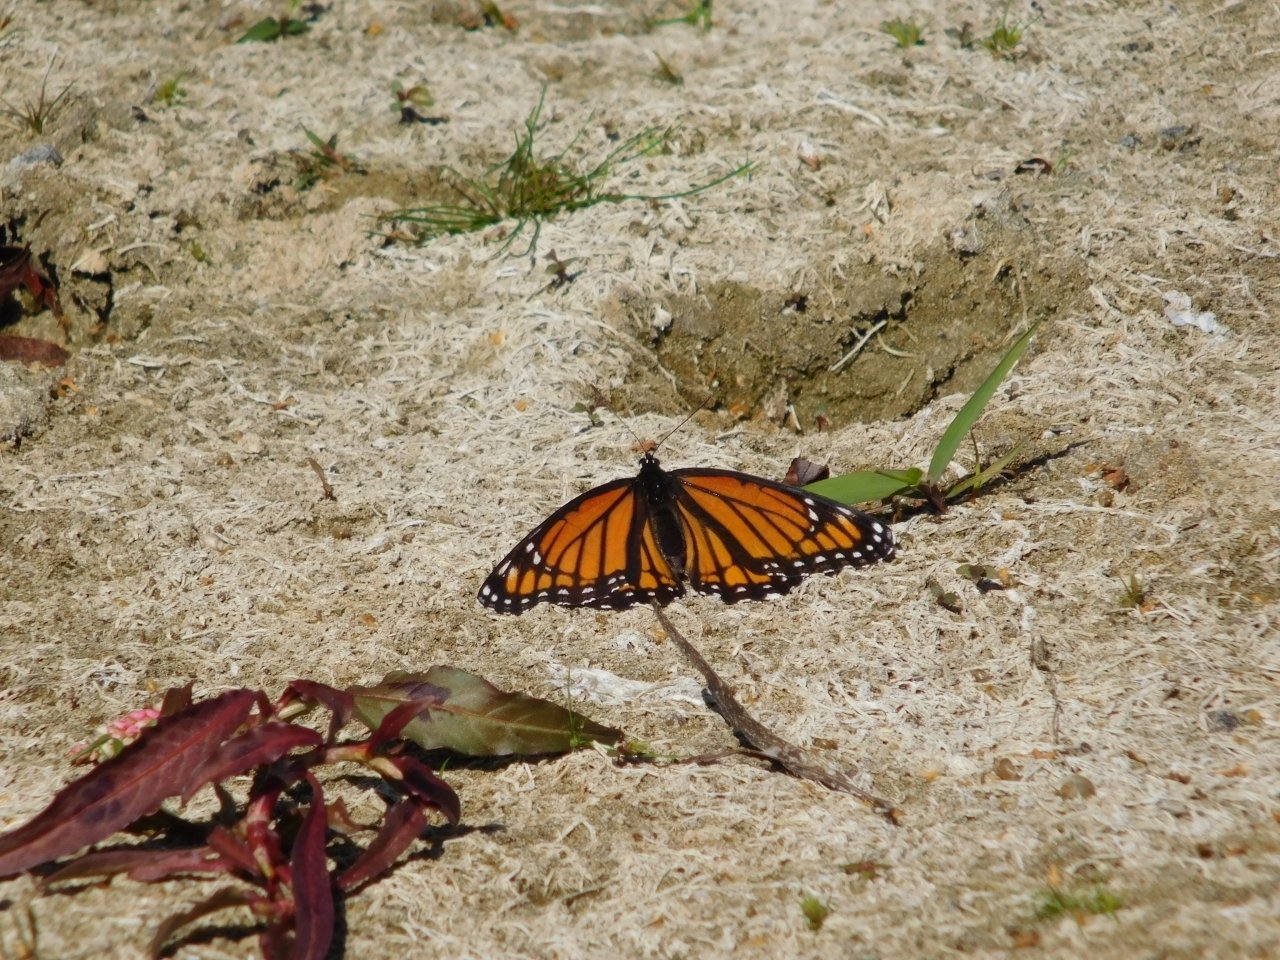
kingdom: Animalia
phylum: Arthropoda
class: Insecta
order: Lepidoptera
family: Nymphalidae
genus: Limenitis
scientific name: Limenitis archippus
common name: Viceroy
